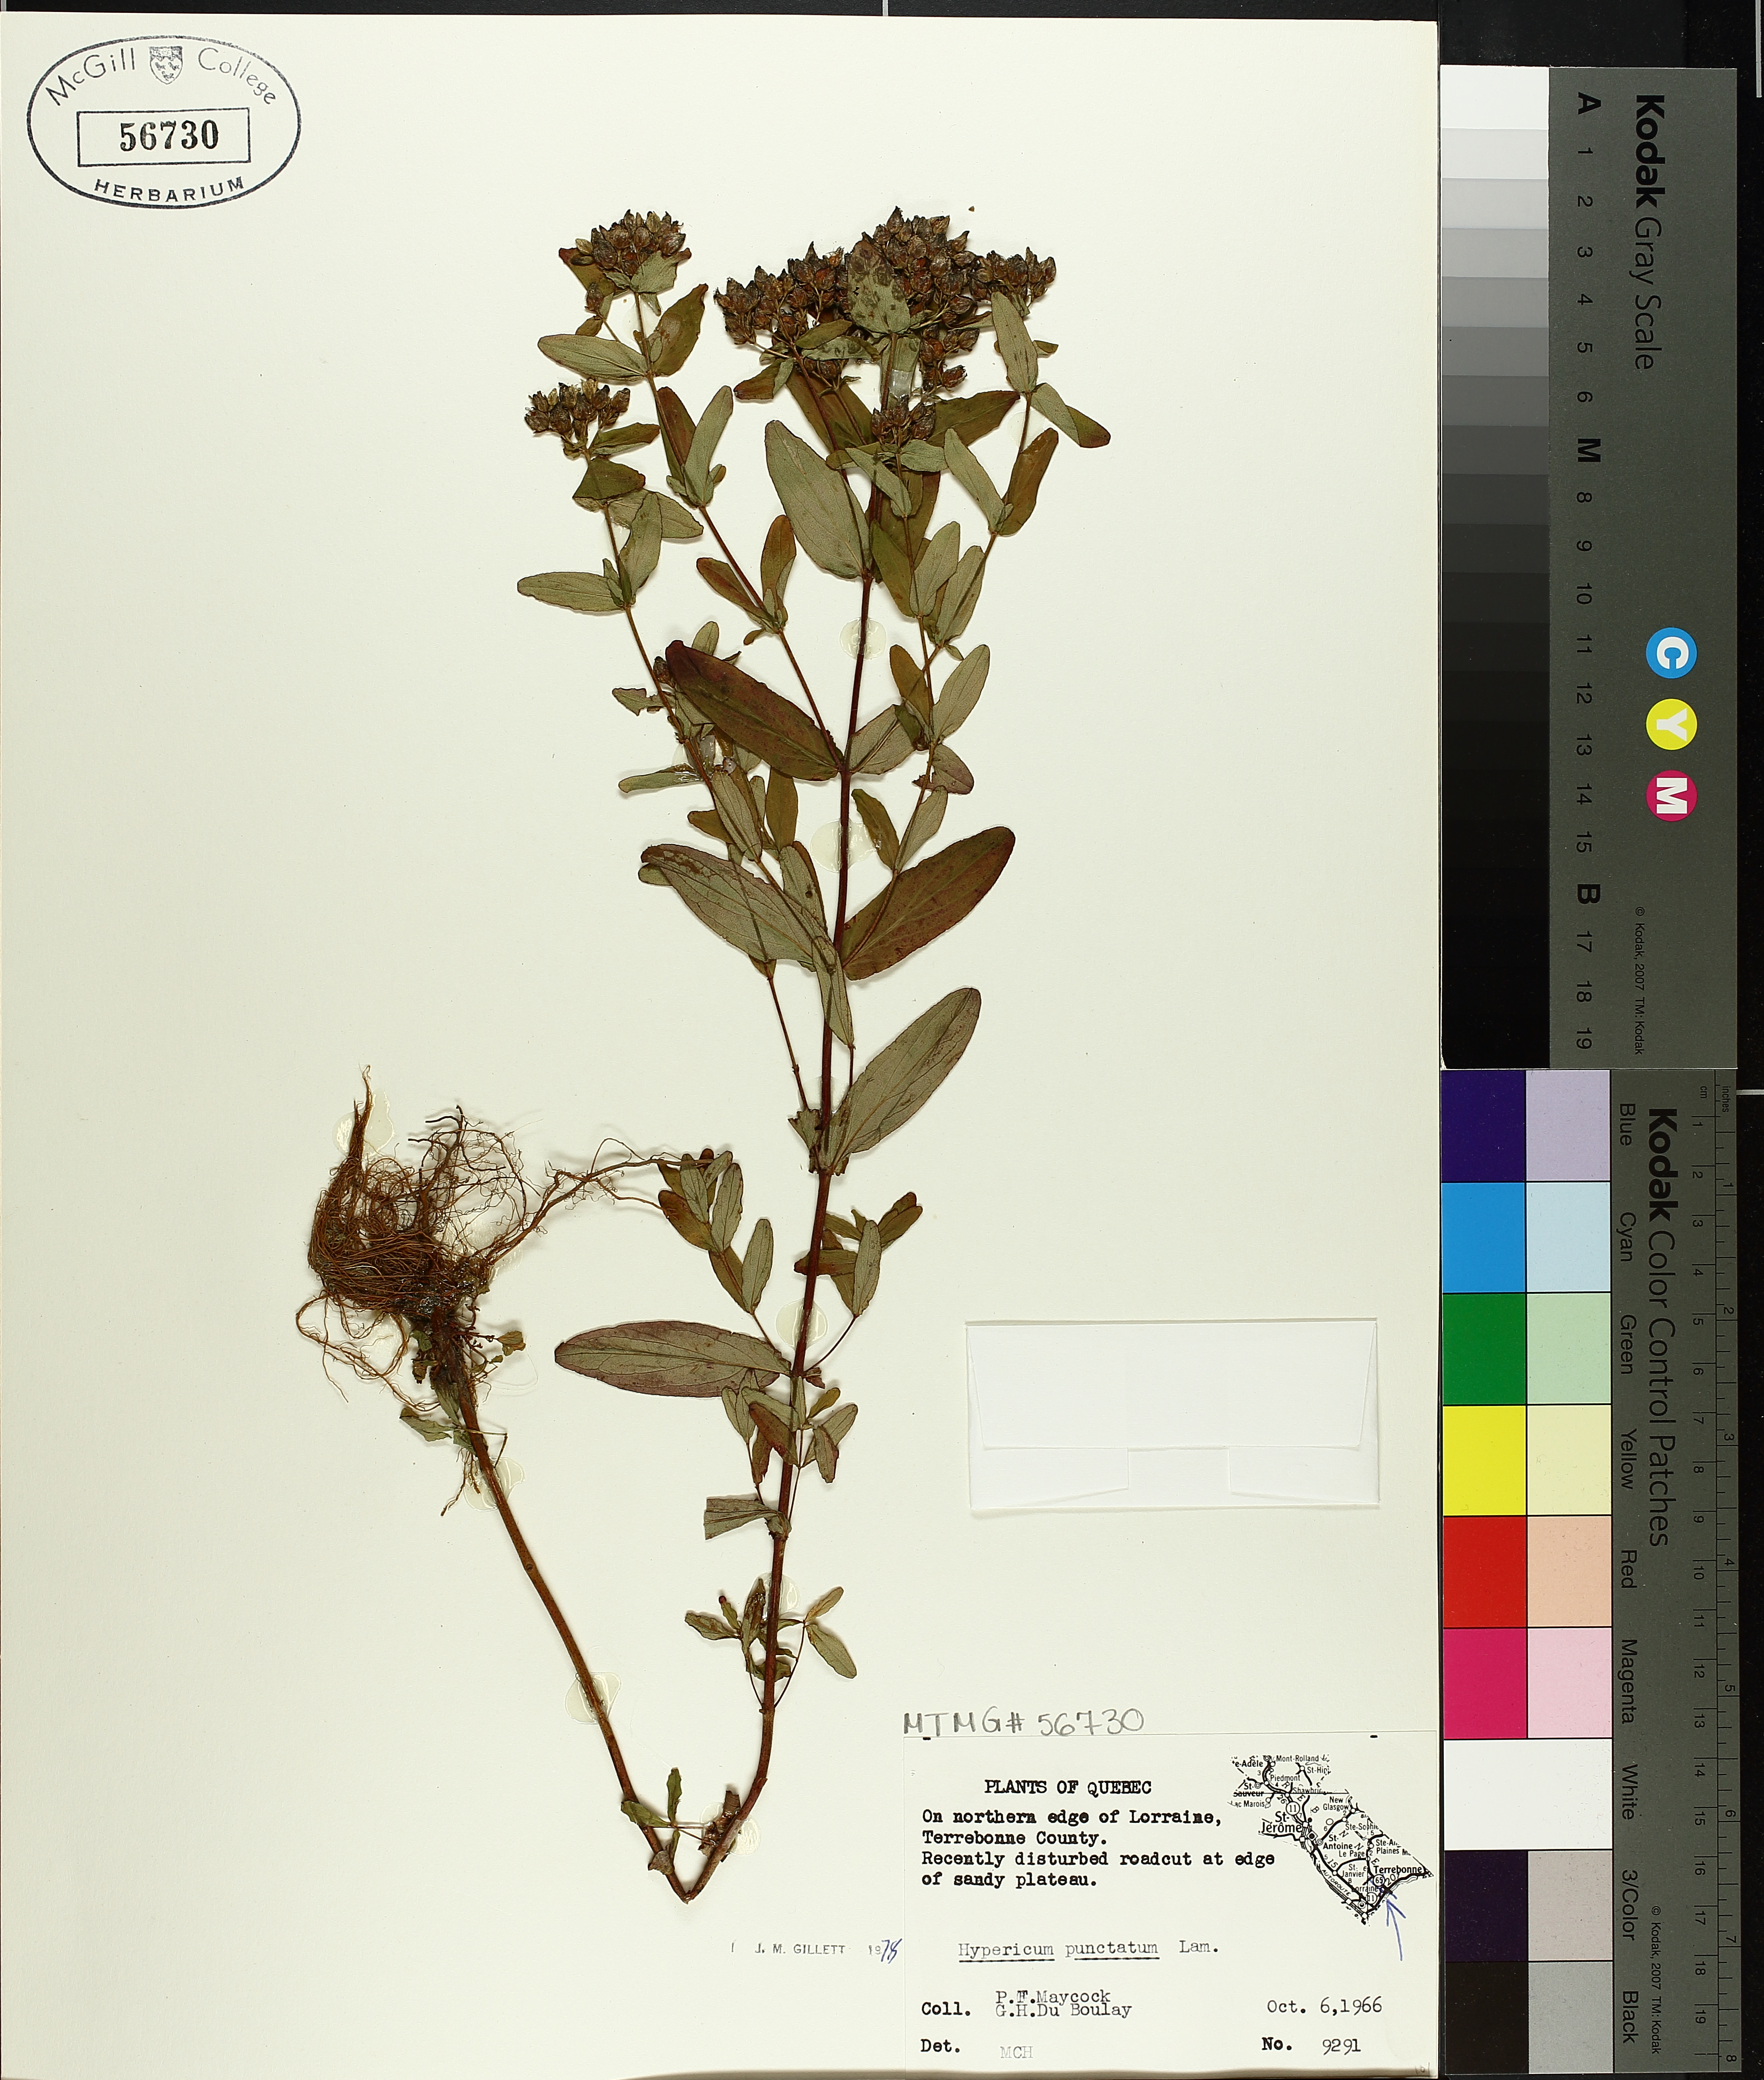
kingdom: Plantae
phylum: Tracheophyta
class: Magnoliopsida
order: Malpighiales
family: Hypericaceae
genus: Hypericum
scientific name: Hypericum punctatum
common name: Spotted st. john's-wort
